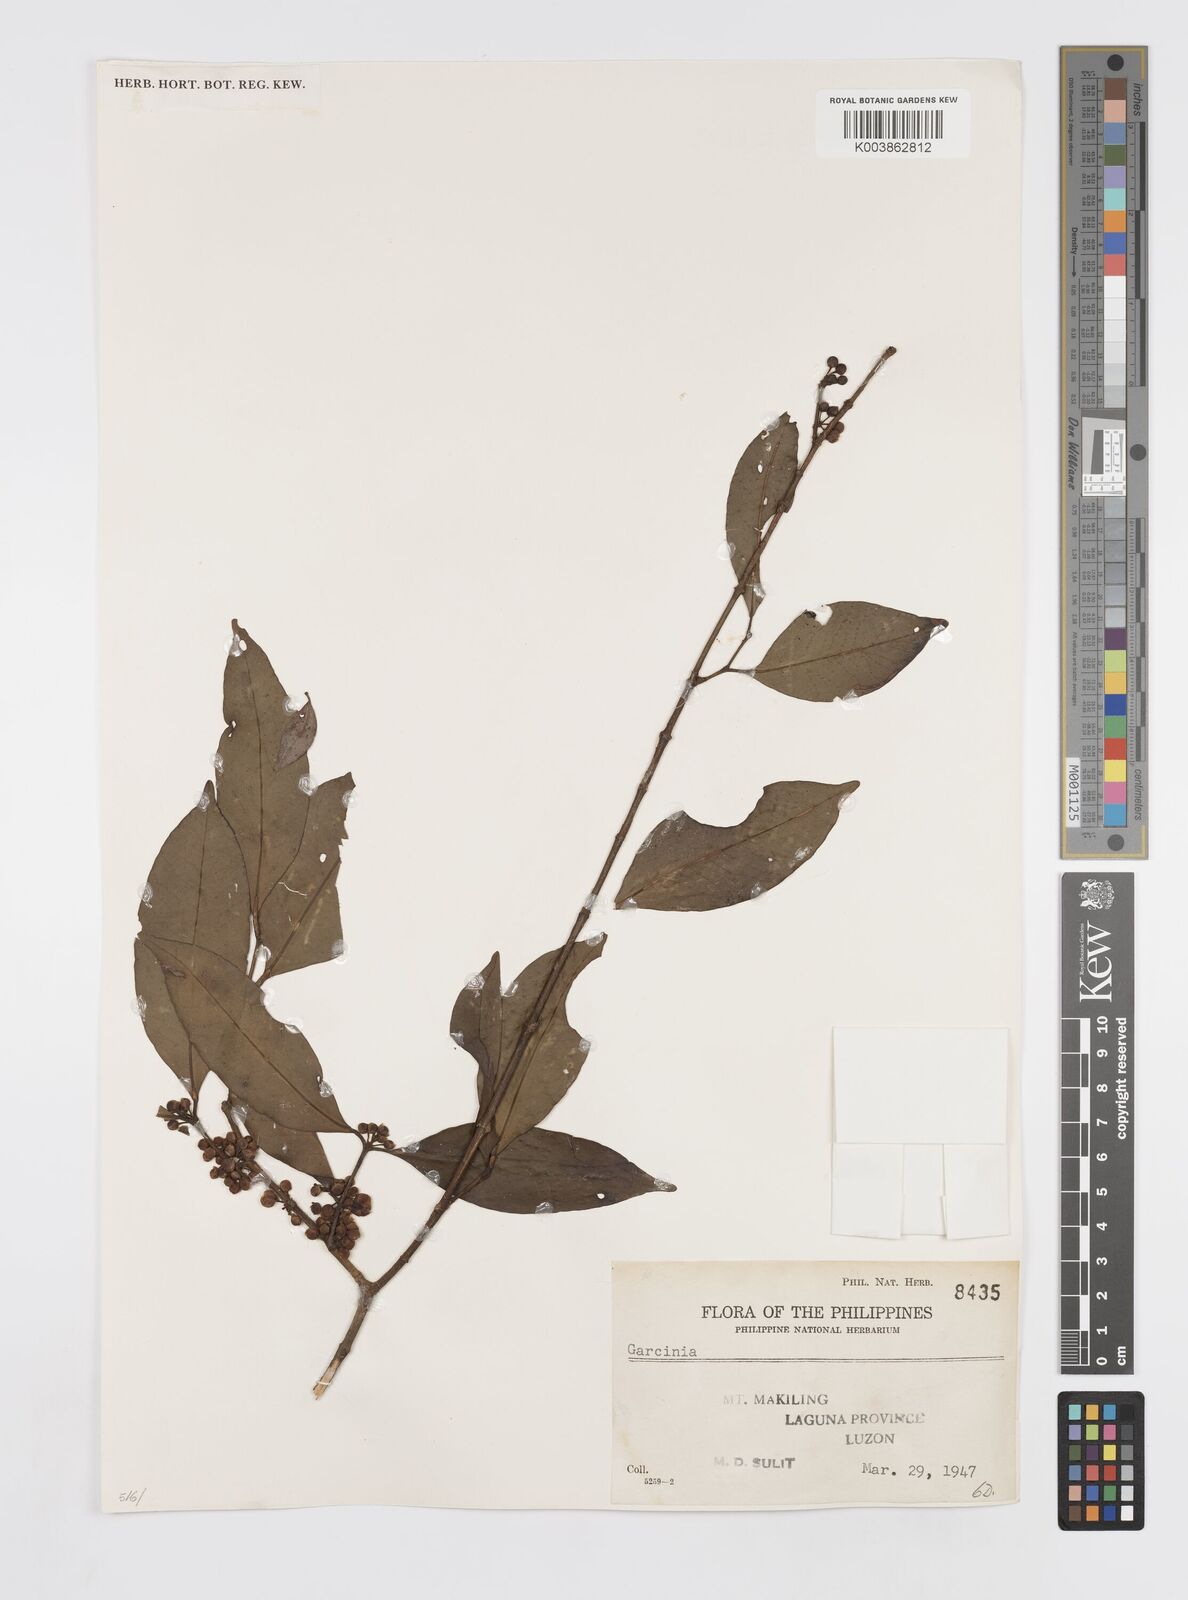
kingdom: Plantae
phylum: Tracheophyta
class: Magnoliopsida
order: Malpighiales
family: Clusiaceae
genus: Garcinia
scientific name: Garcinia
